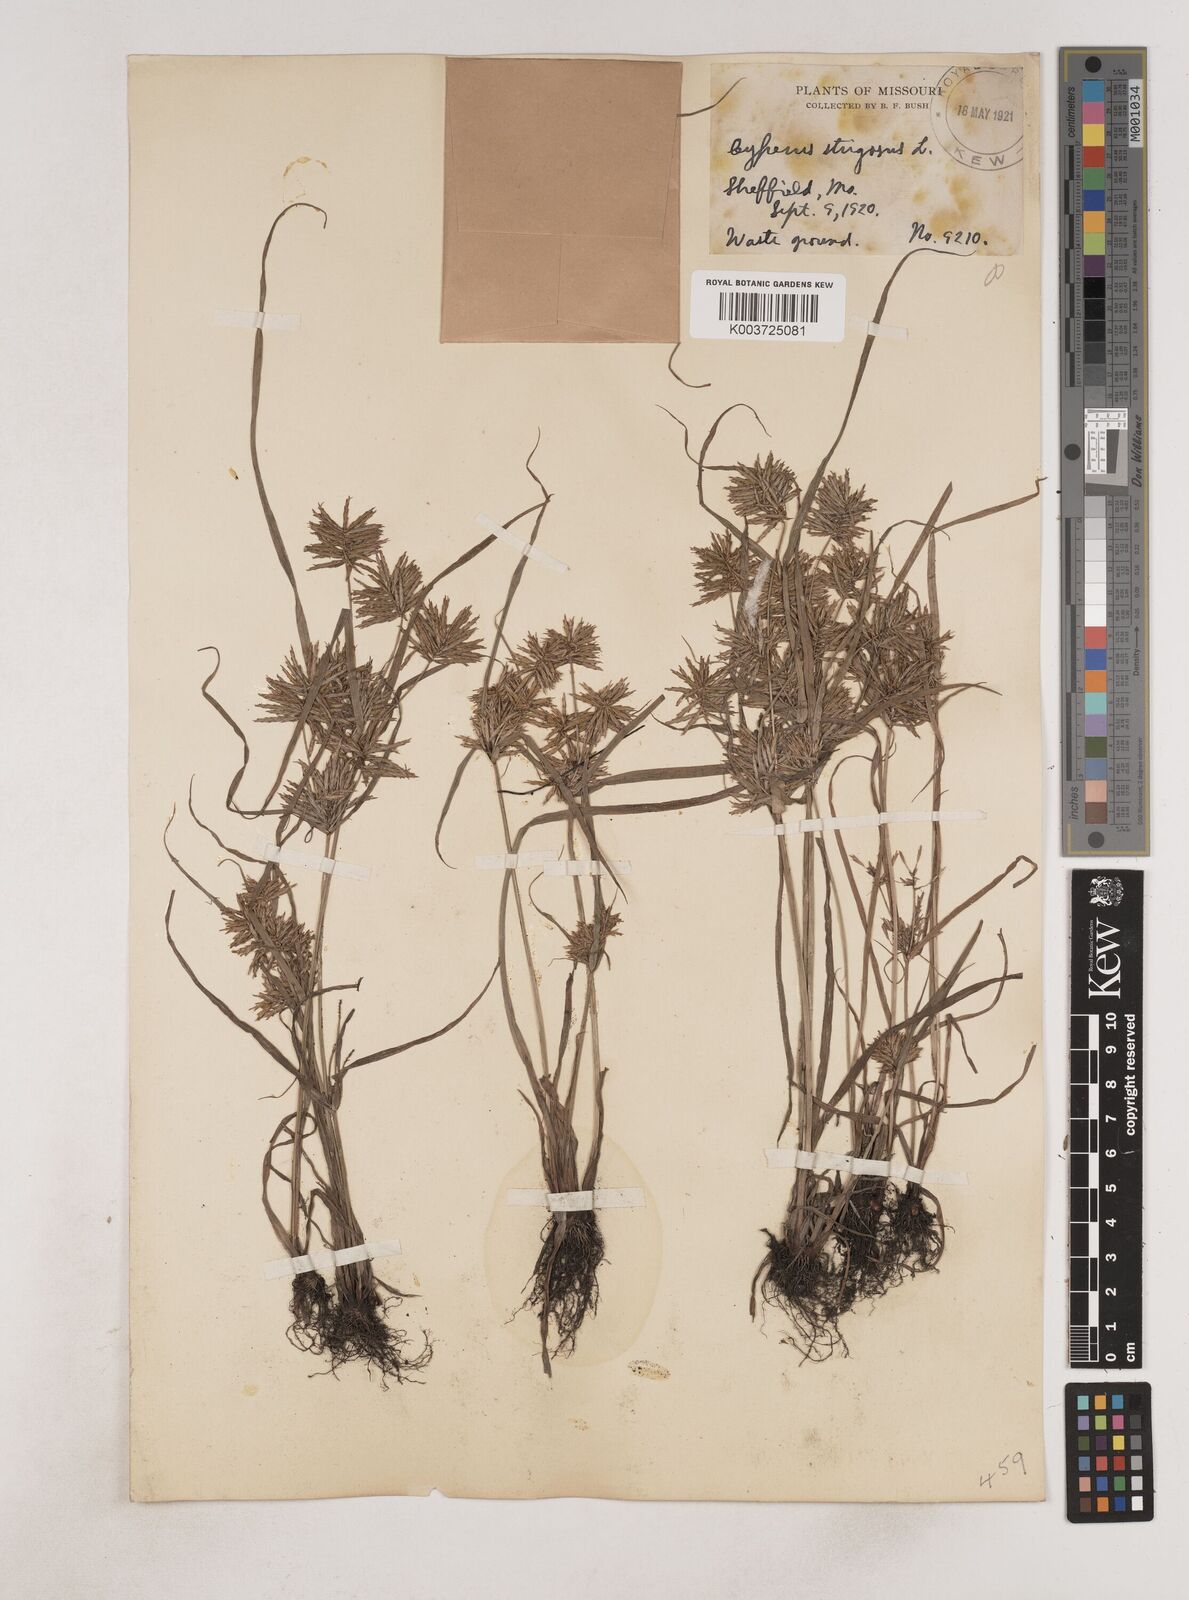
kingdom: Plantae
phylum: Tracheophyta
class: Liliopsida
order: Poales
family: Cyperaceae
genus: Cyperus
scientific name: Cyperus strigosus
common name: False nutsedge
